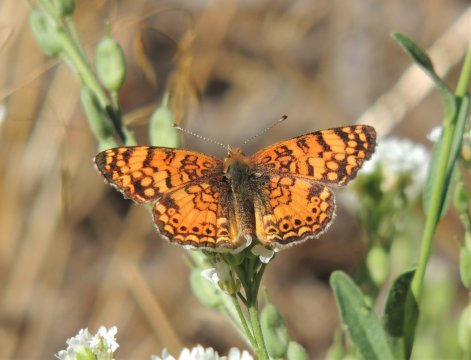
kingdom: Animalia
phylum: Arthropoda
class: Insecta
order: Lepidoptera
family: Nymphalidae
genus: Eresia
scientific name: Eresia aveyrona
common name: Mylitta Crescent
